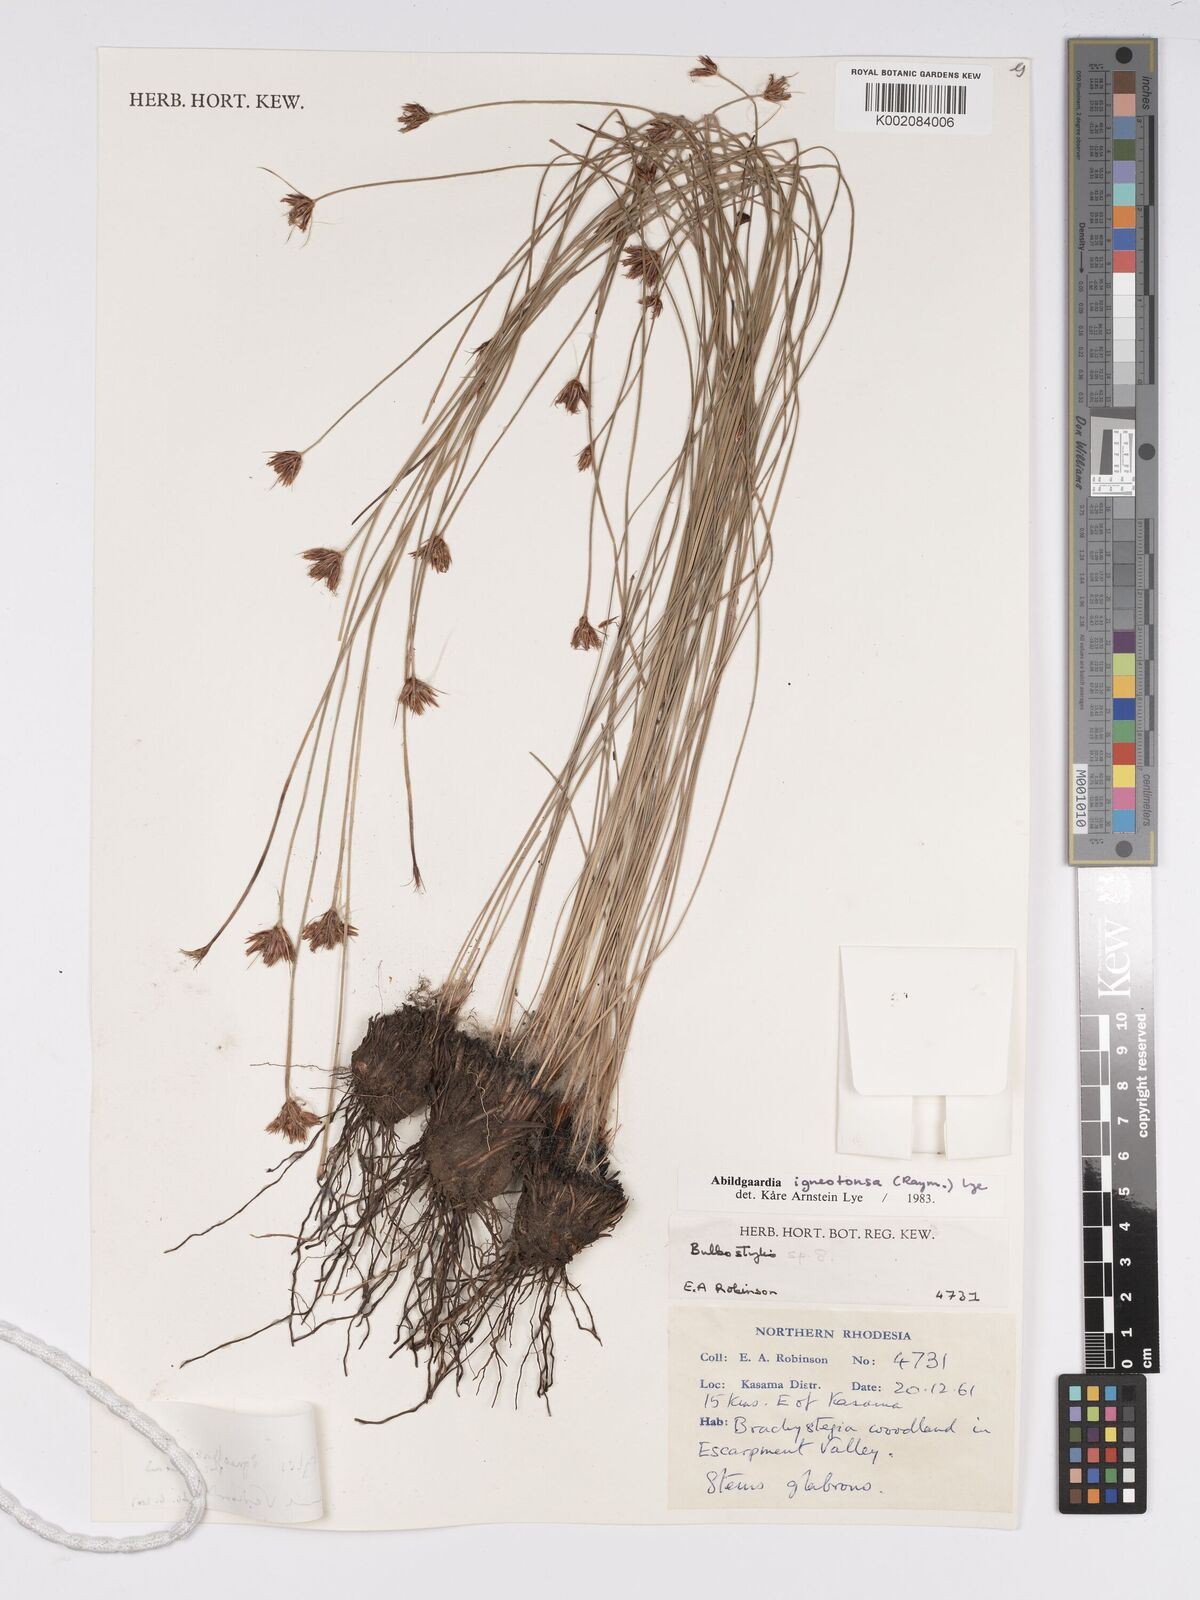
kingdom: Plantae
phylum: Tracheophyta
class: Liliopsida
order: Poales
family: Cyperaceae
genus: Bulbostylis
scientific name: Bulbostylis igneotonsa
